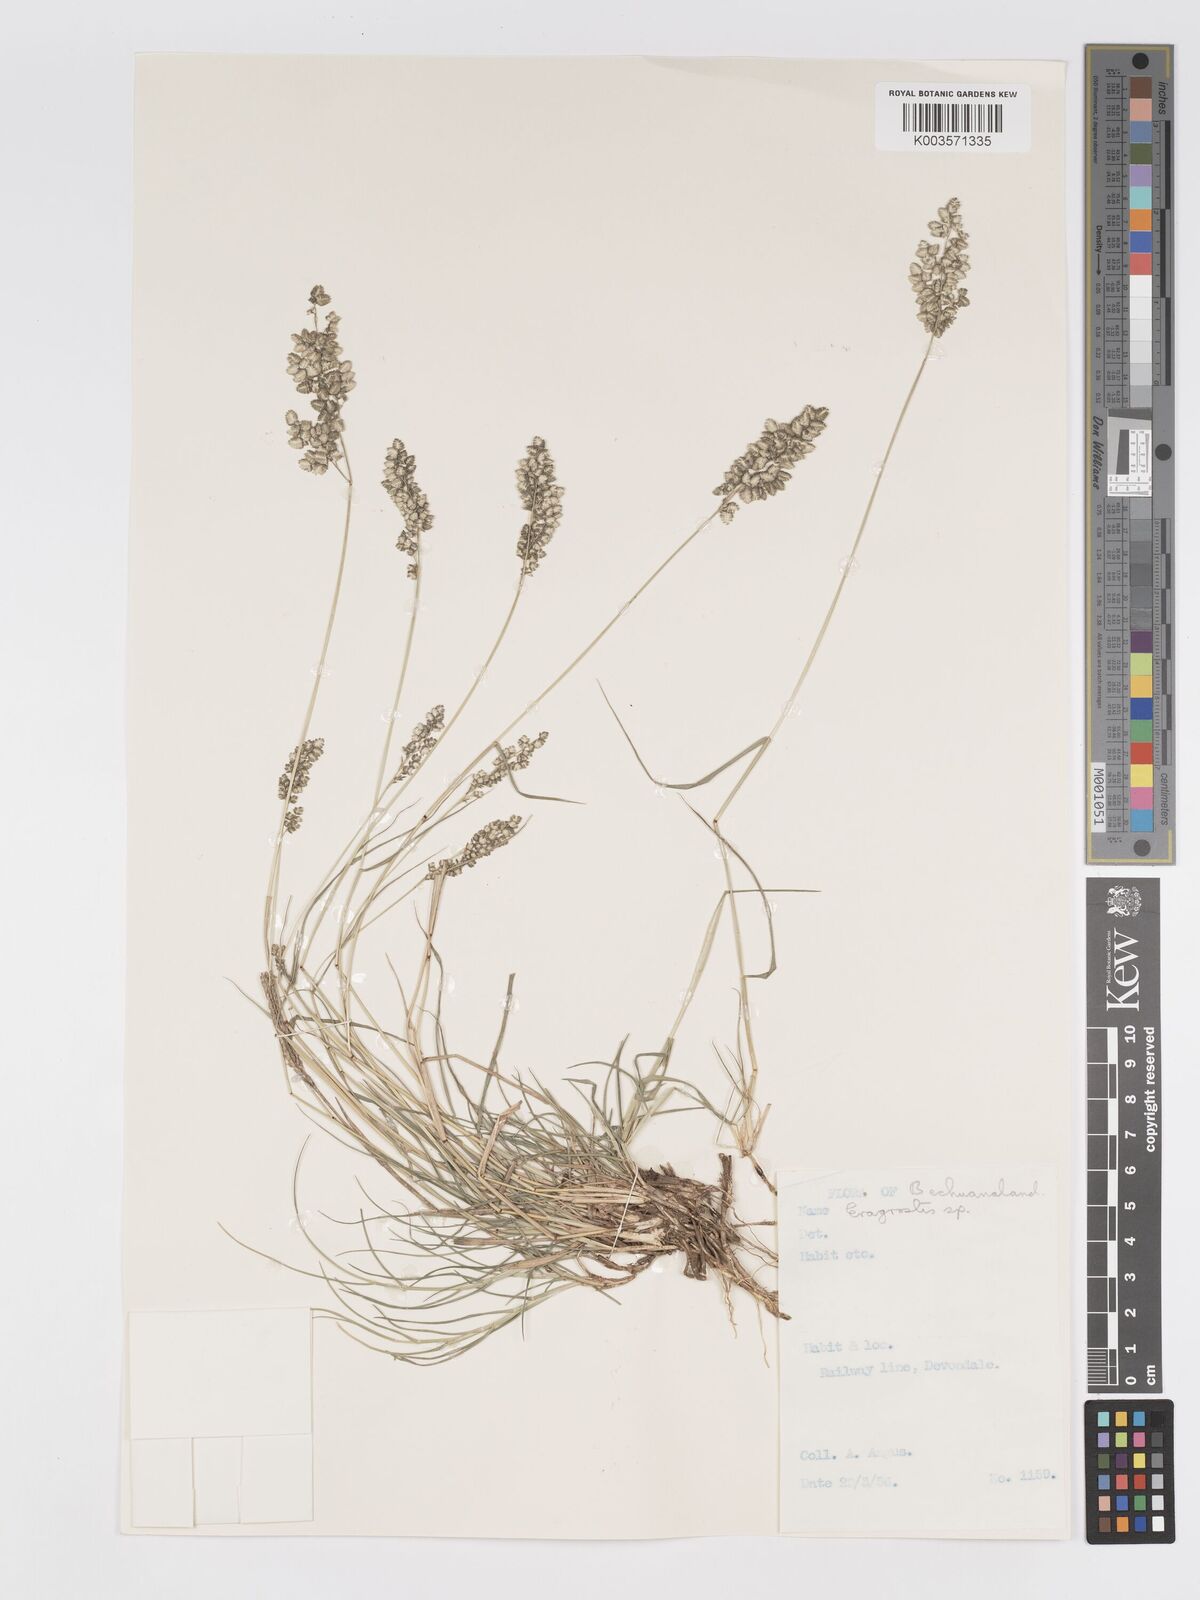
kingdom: Plantae
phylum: Tracheophyta
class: Liliopsida
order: Poales
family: Poaceae
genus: Eragrostis
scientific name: Eragrostis echinochloidea
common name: African lovegrass
